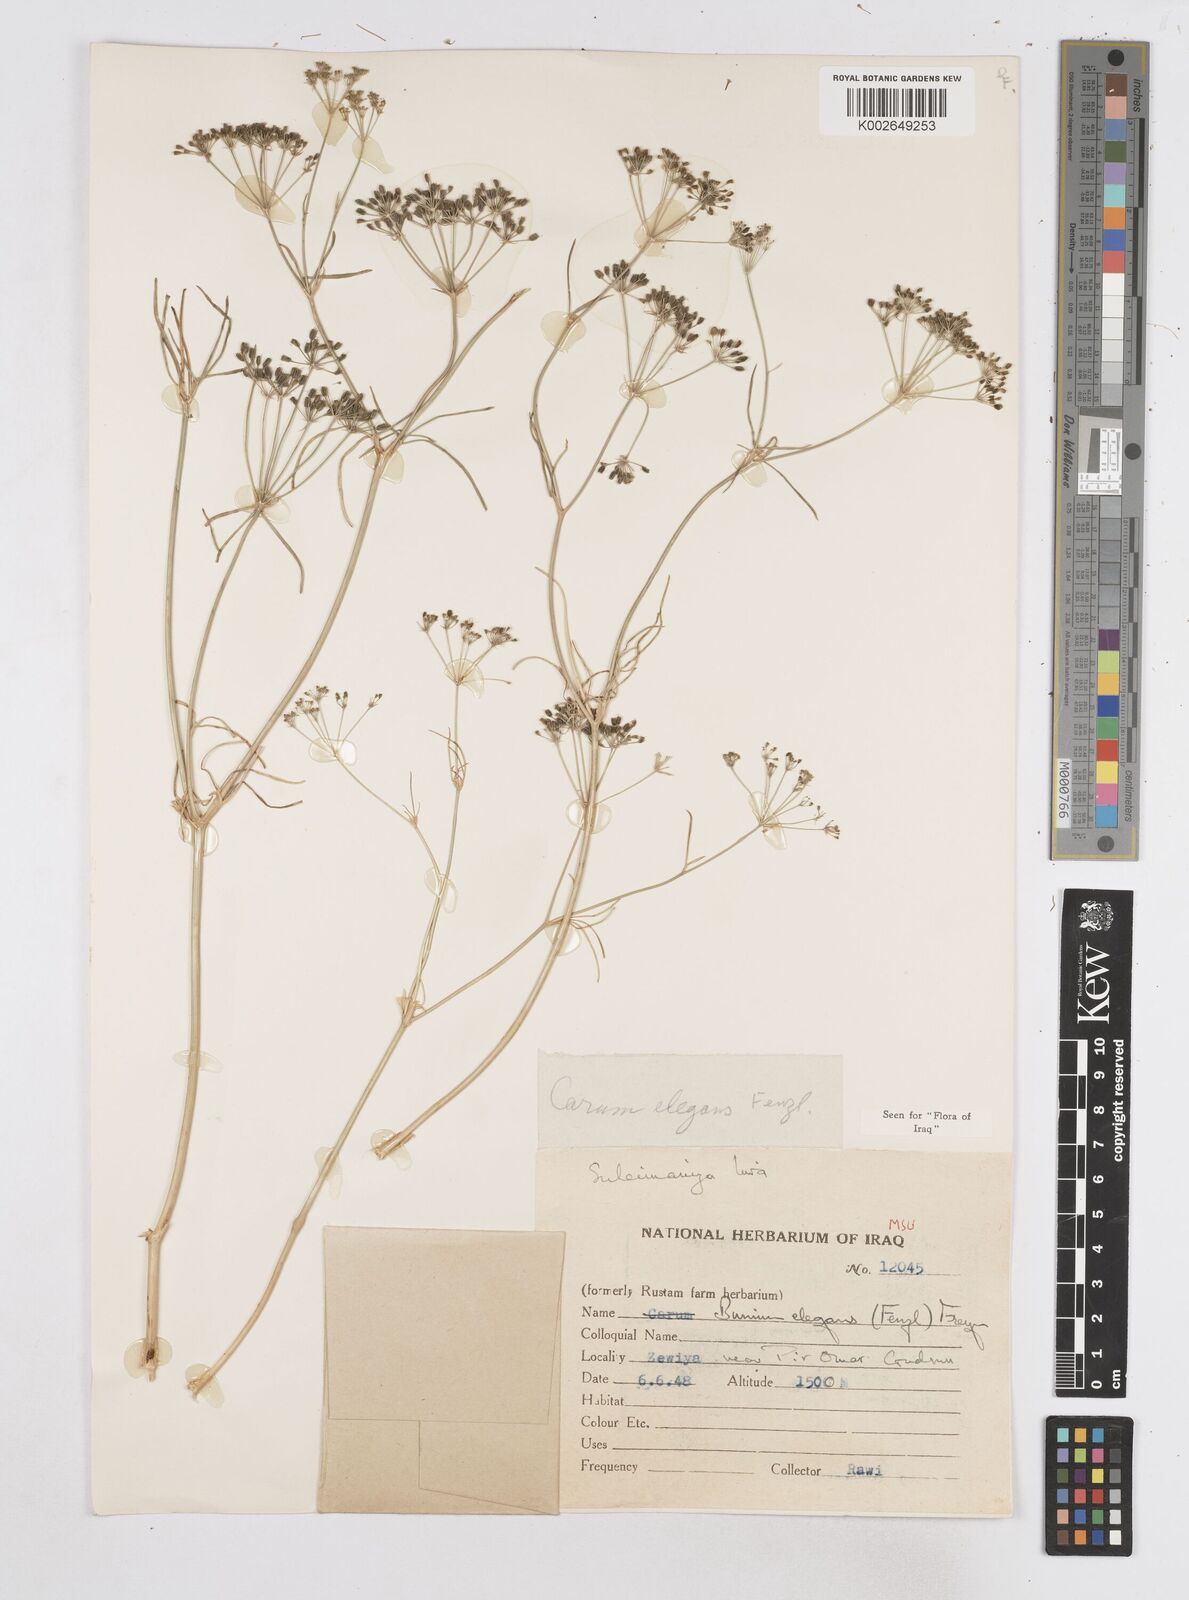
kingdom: Plantae
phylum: Tracheophyta
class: Magnoliopsida
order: Apiales
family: Apiaceae
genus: Bunium
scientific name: Bunium paucifolium
